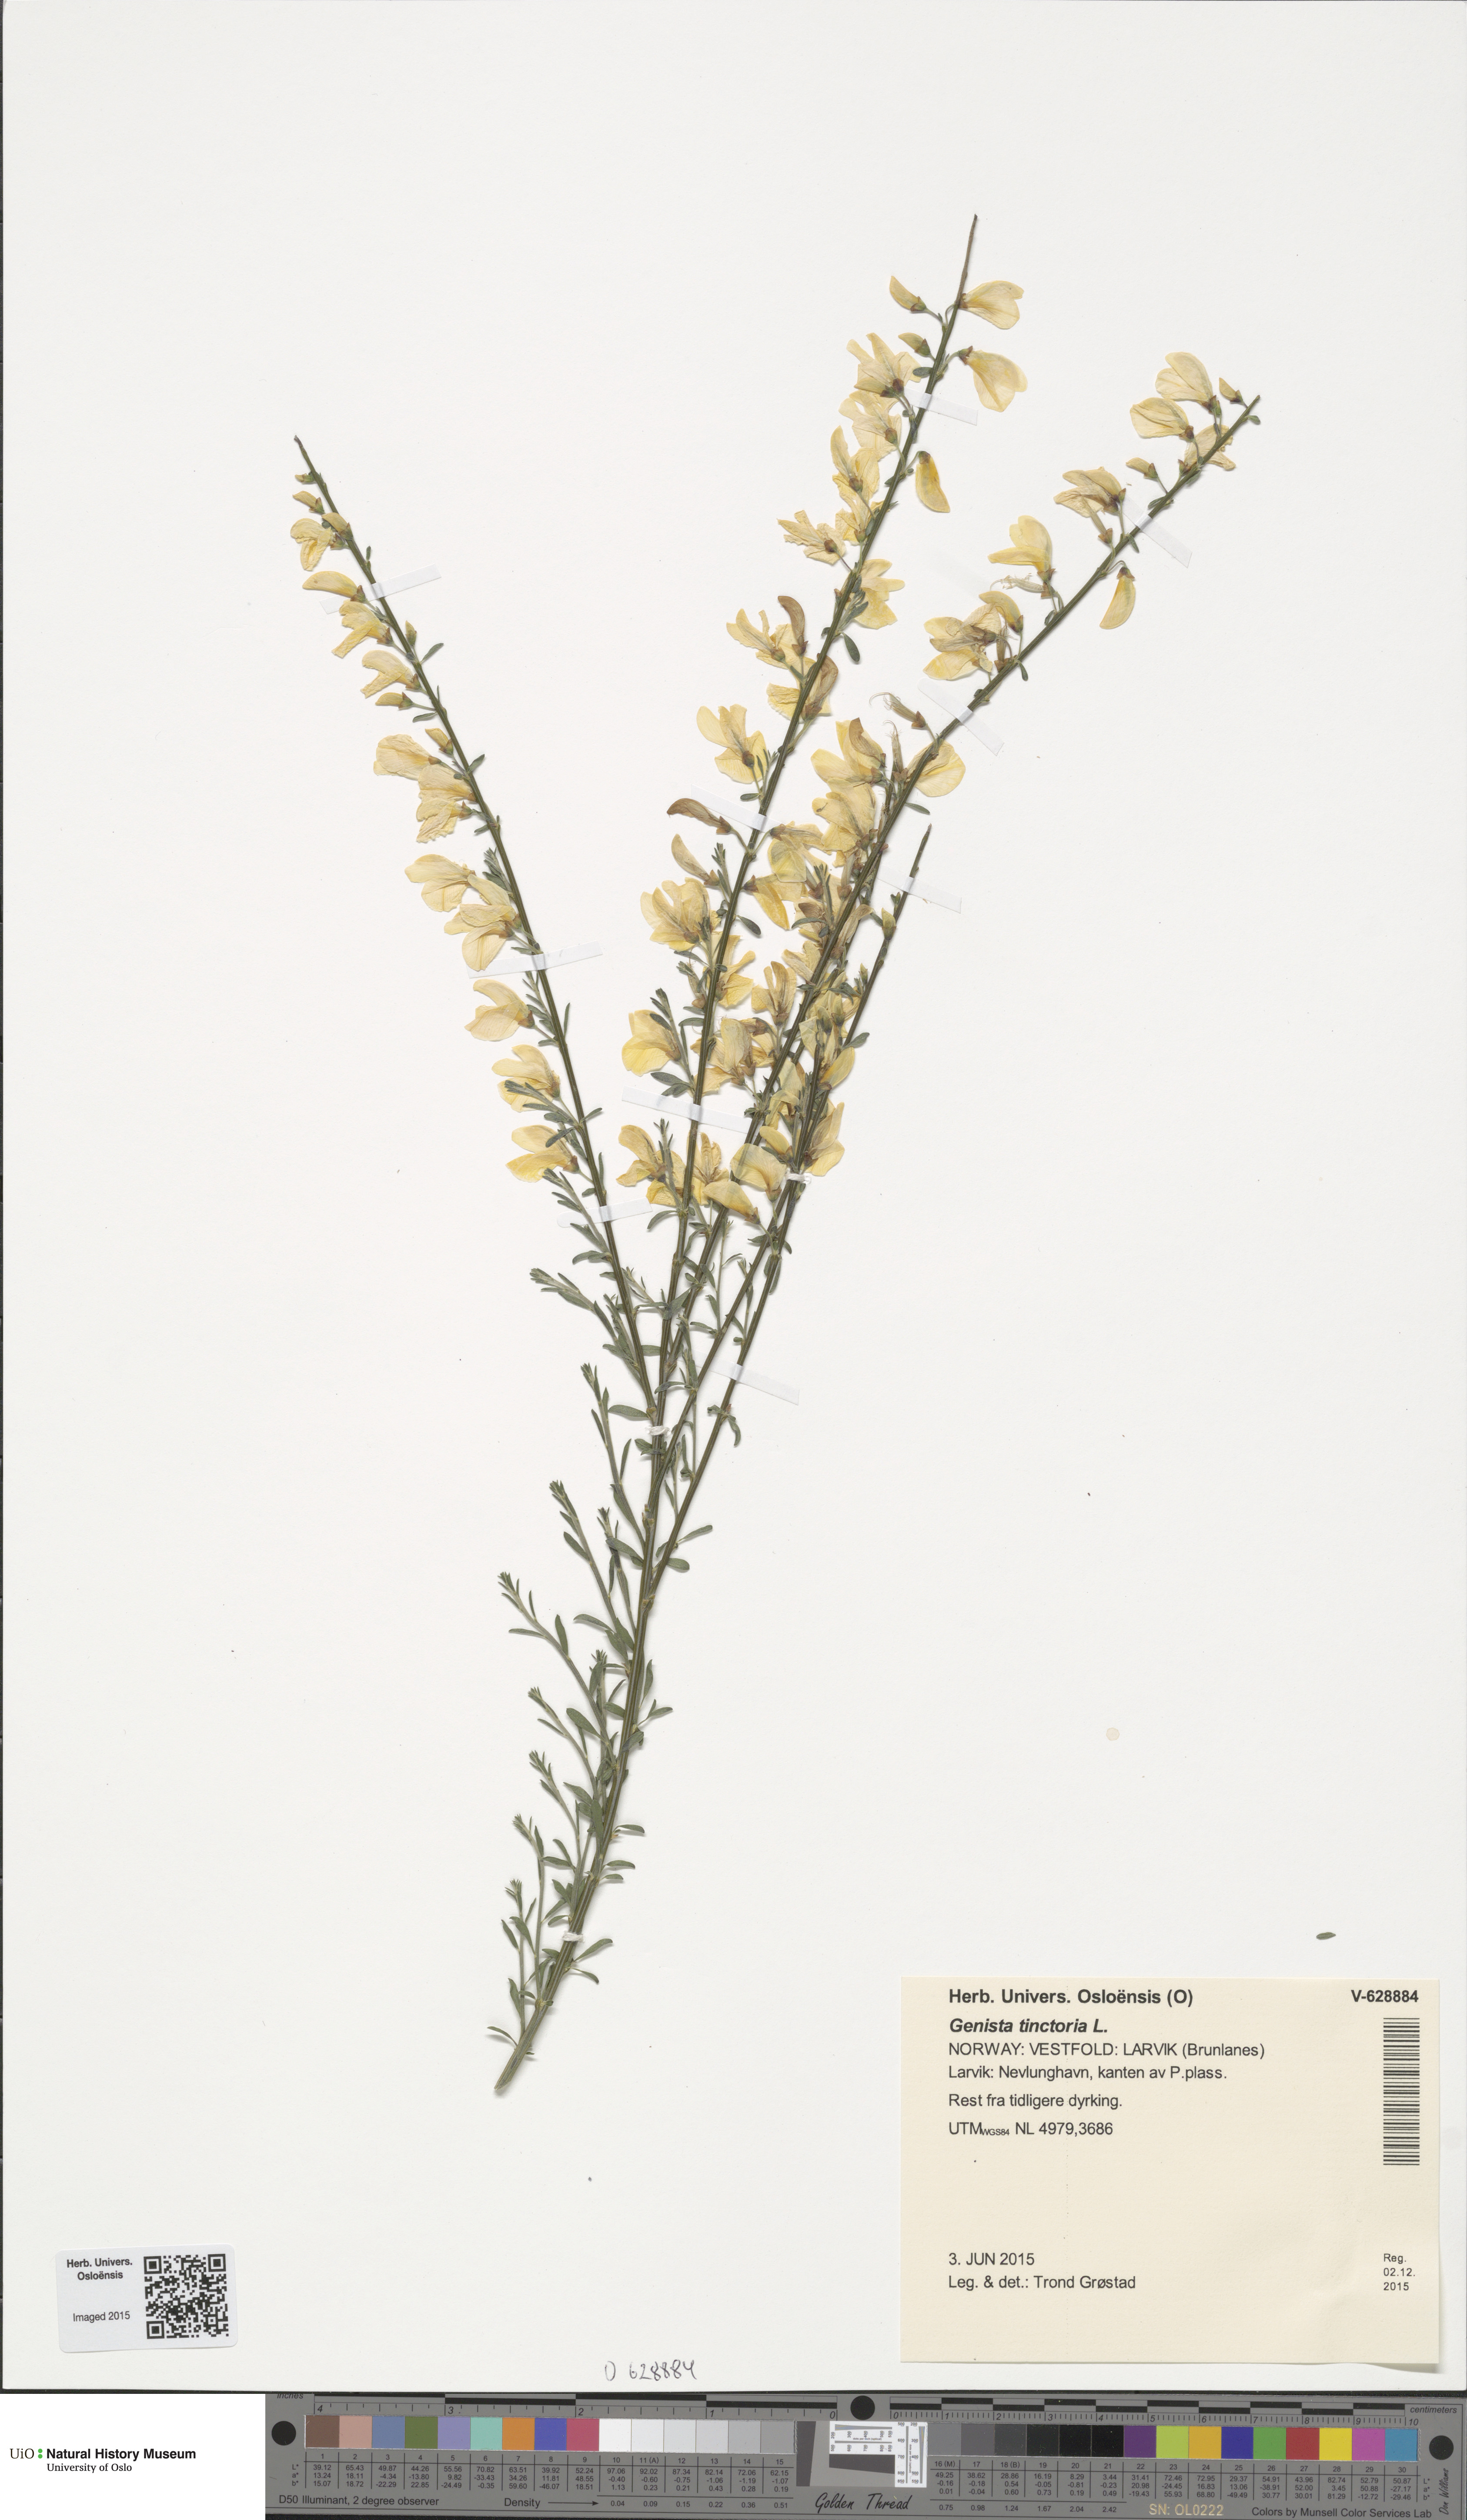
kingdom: Plantae
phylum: Tracheophyta
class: Magnoliopsida
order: Fabales
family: Fabaceae
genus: Genista
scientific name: Genista tinctoria
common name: Dyer's greenweed
